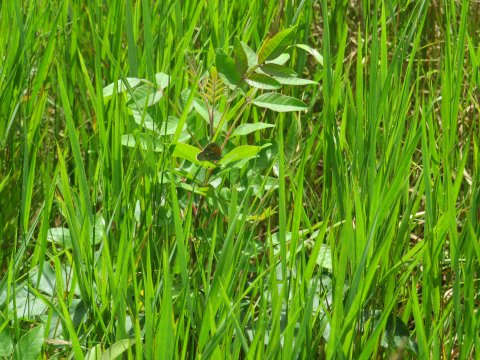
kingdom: Animalia
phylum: Arthropoda
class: Insecta
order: Lepidoptera
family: Nymphalidae
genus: Coenonympha
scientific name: Coenonympha tullia
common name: Large Heath
